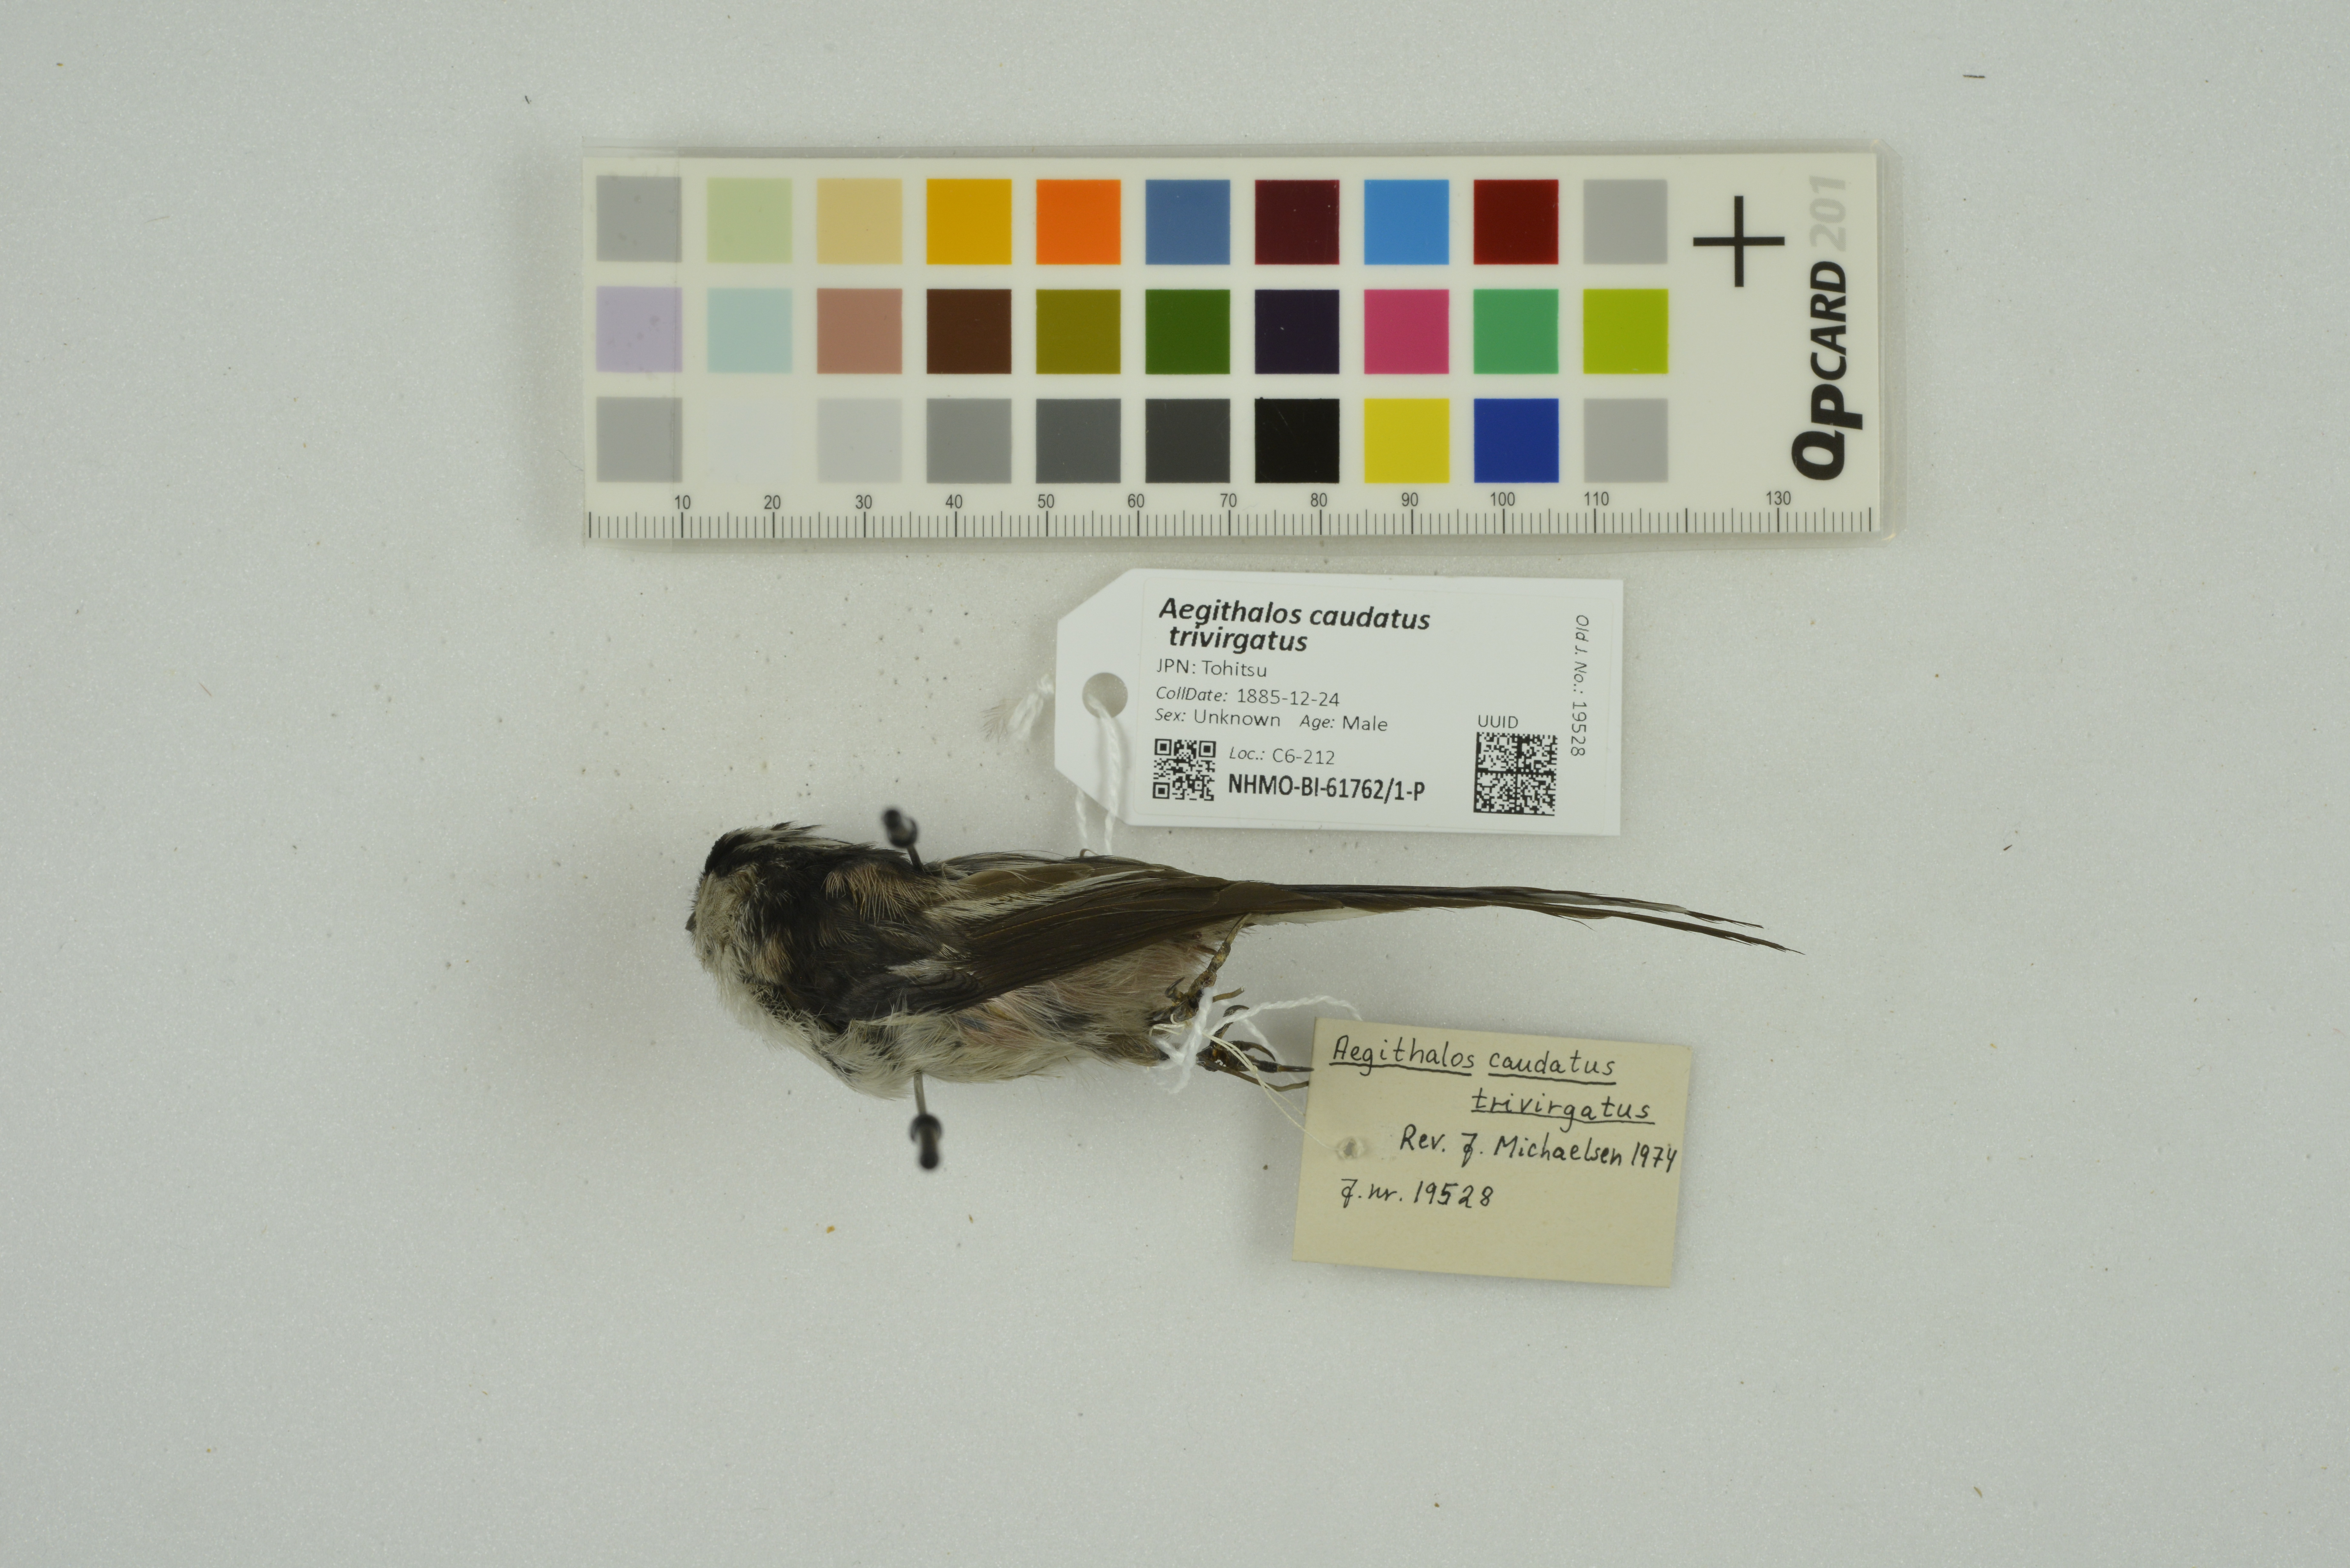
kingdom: Animalia
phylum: Chordata
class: Aves
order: Passeriformes
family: Aegithalidae
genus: Aegithalos
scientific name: Aegithalos caudatus
